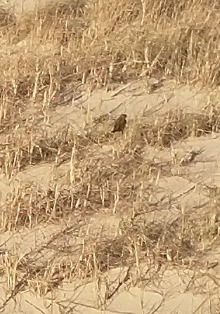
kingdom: Animalia
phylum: Chordata
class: Aves
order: Passeriformes
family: Fringillidae
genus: Linaria
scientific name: Linaria flavirostris
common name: Bjergirisk
